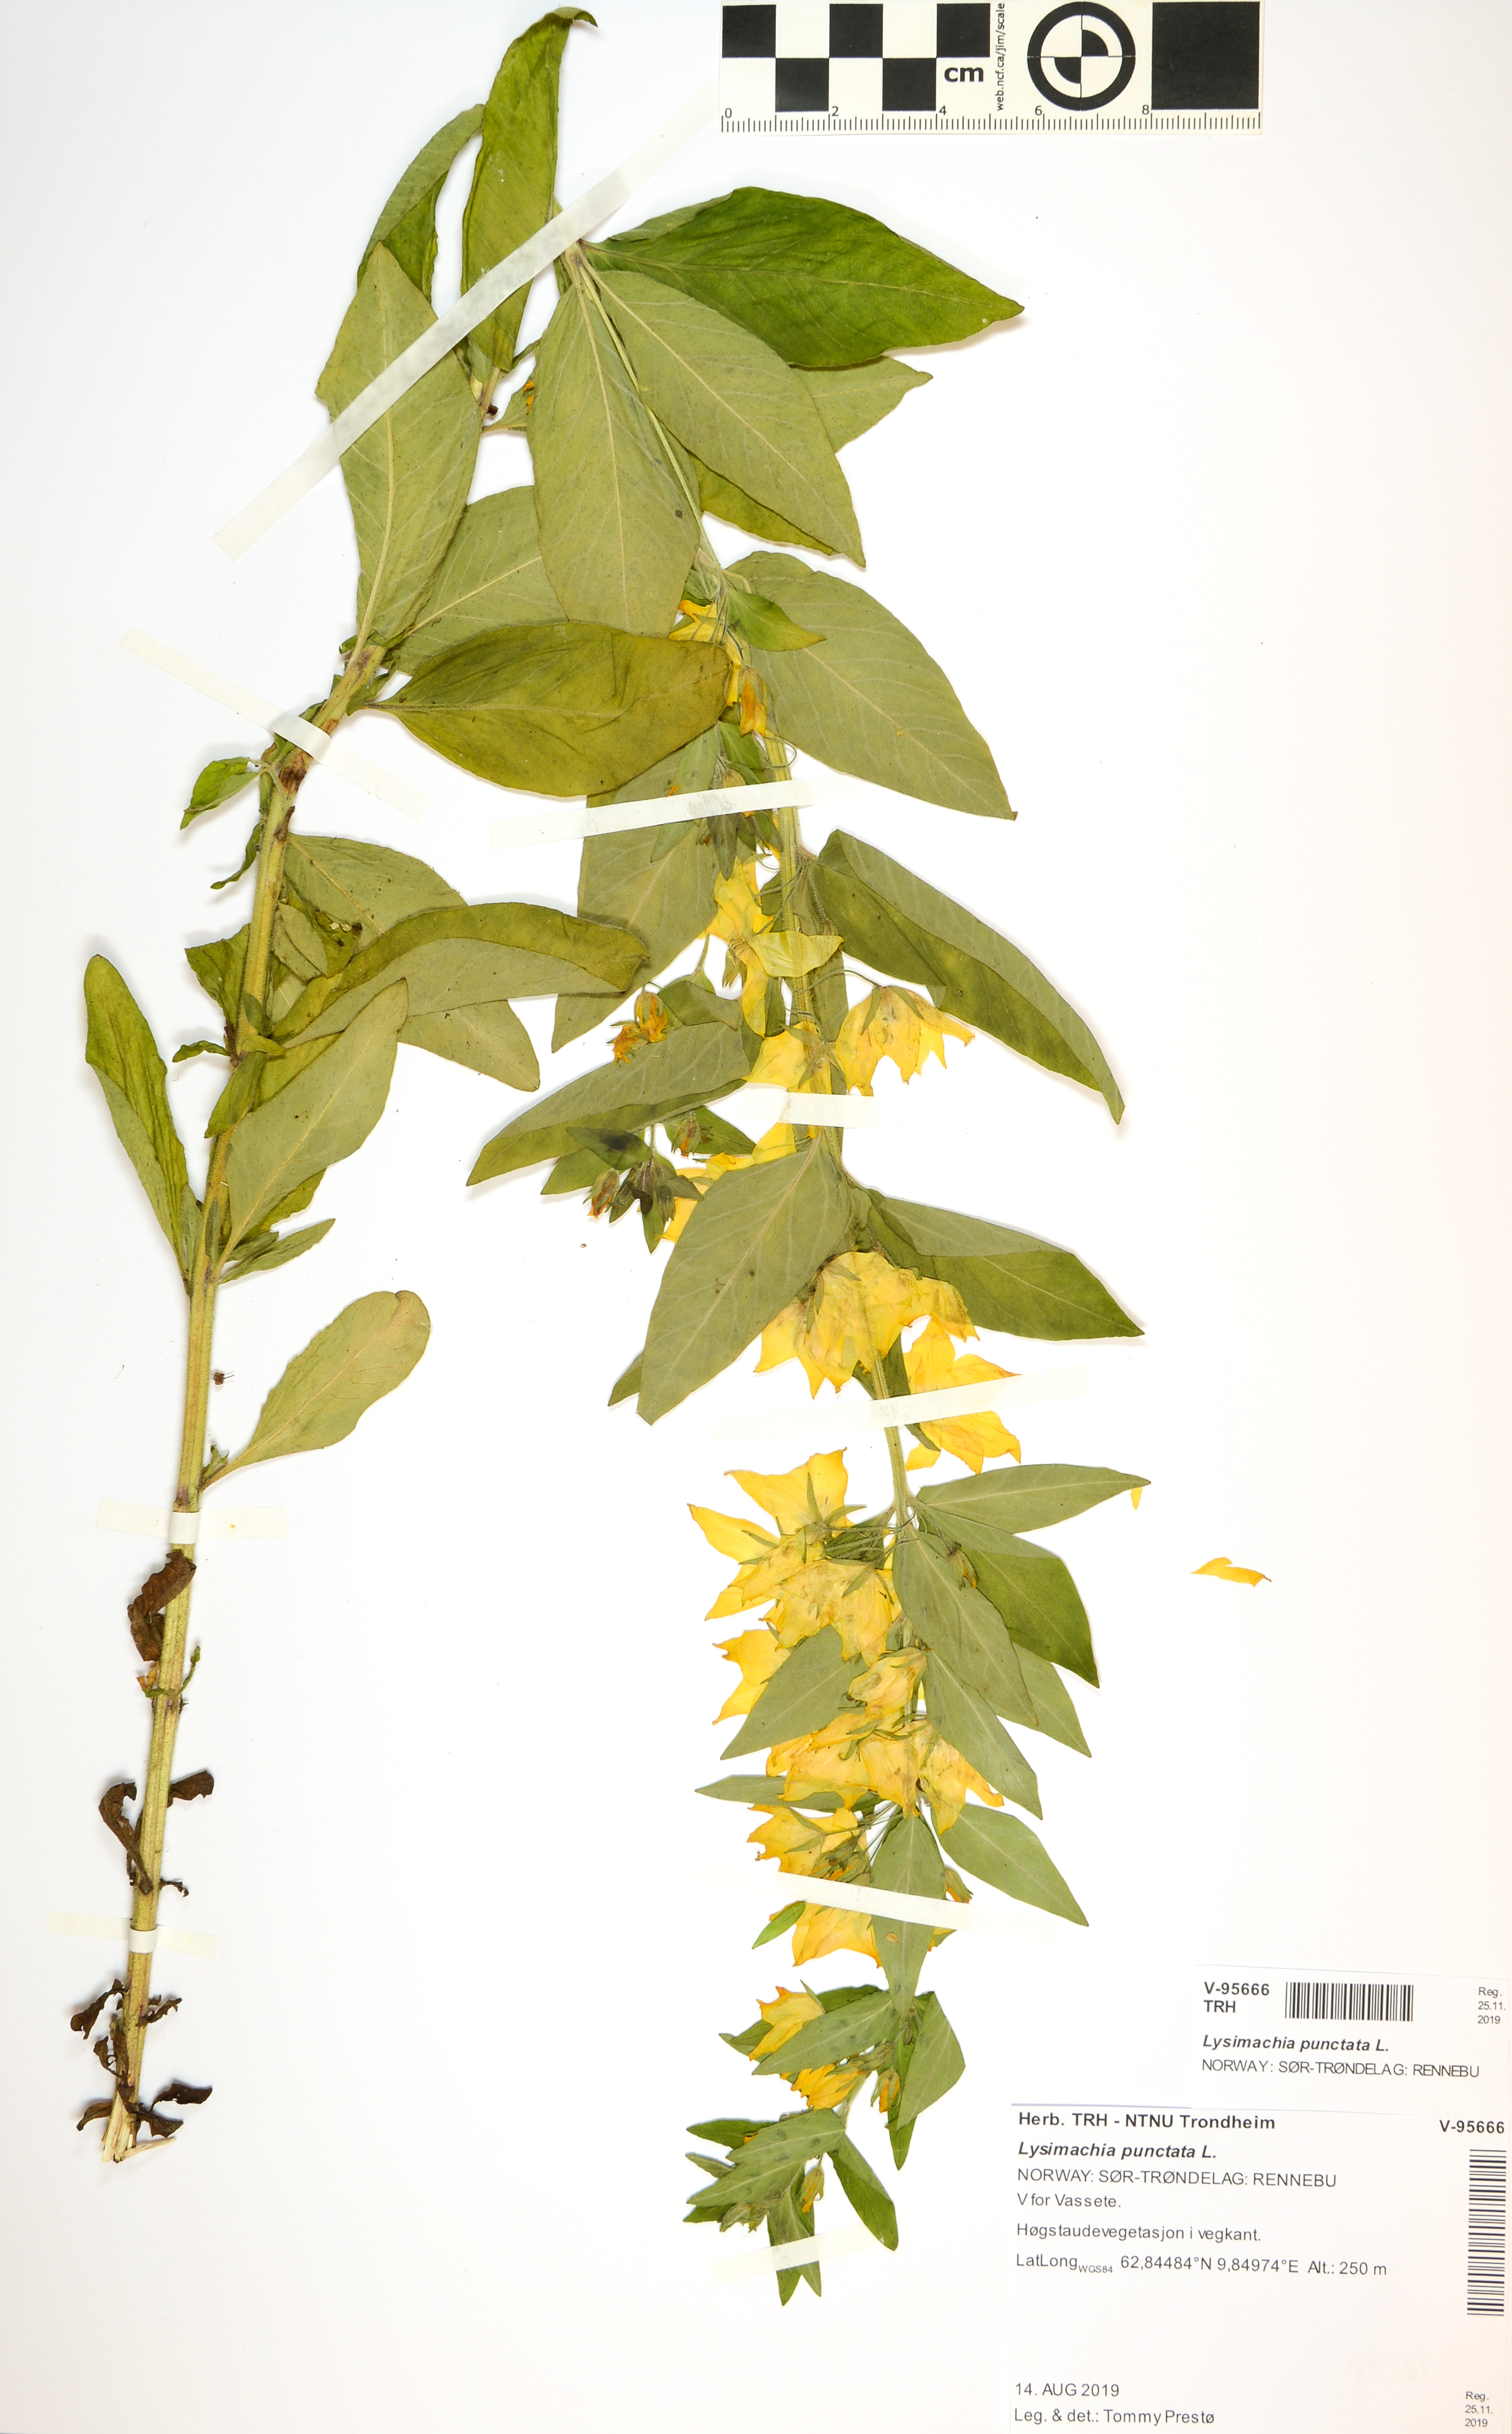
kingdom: Plantae
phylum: Tracheophyta
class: Magnoliopsida
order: Ericales
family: Primulaceae
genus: Lysimachia
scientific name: Lysimachia punctata
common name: Dotted loosestrife
